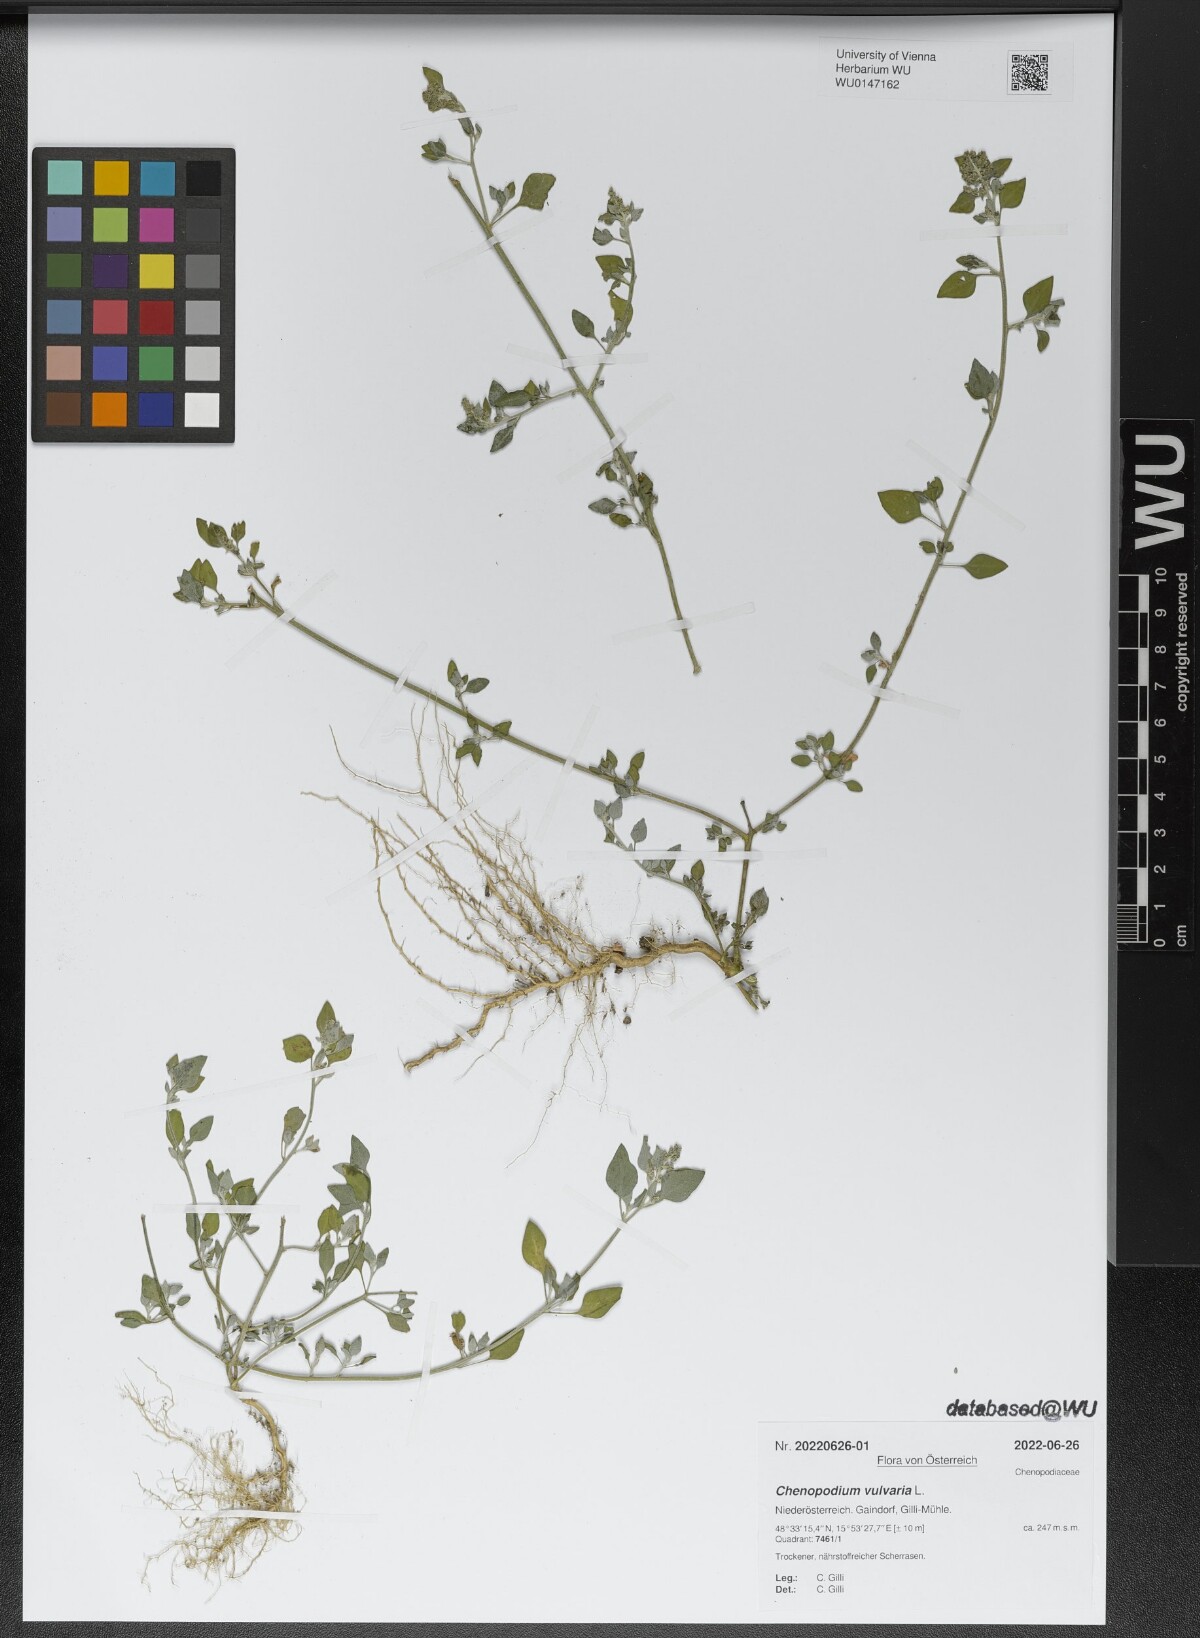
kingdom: Plantae
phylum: Tracheophyta
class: Magnoliopsida
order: Caryophyllales
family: Amaranthaceae
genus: Chenopodium
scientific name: Chenopodium vulvaria
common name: Stinking goosefoot
